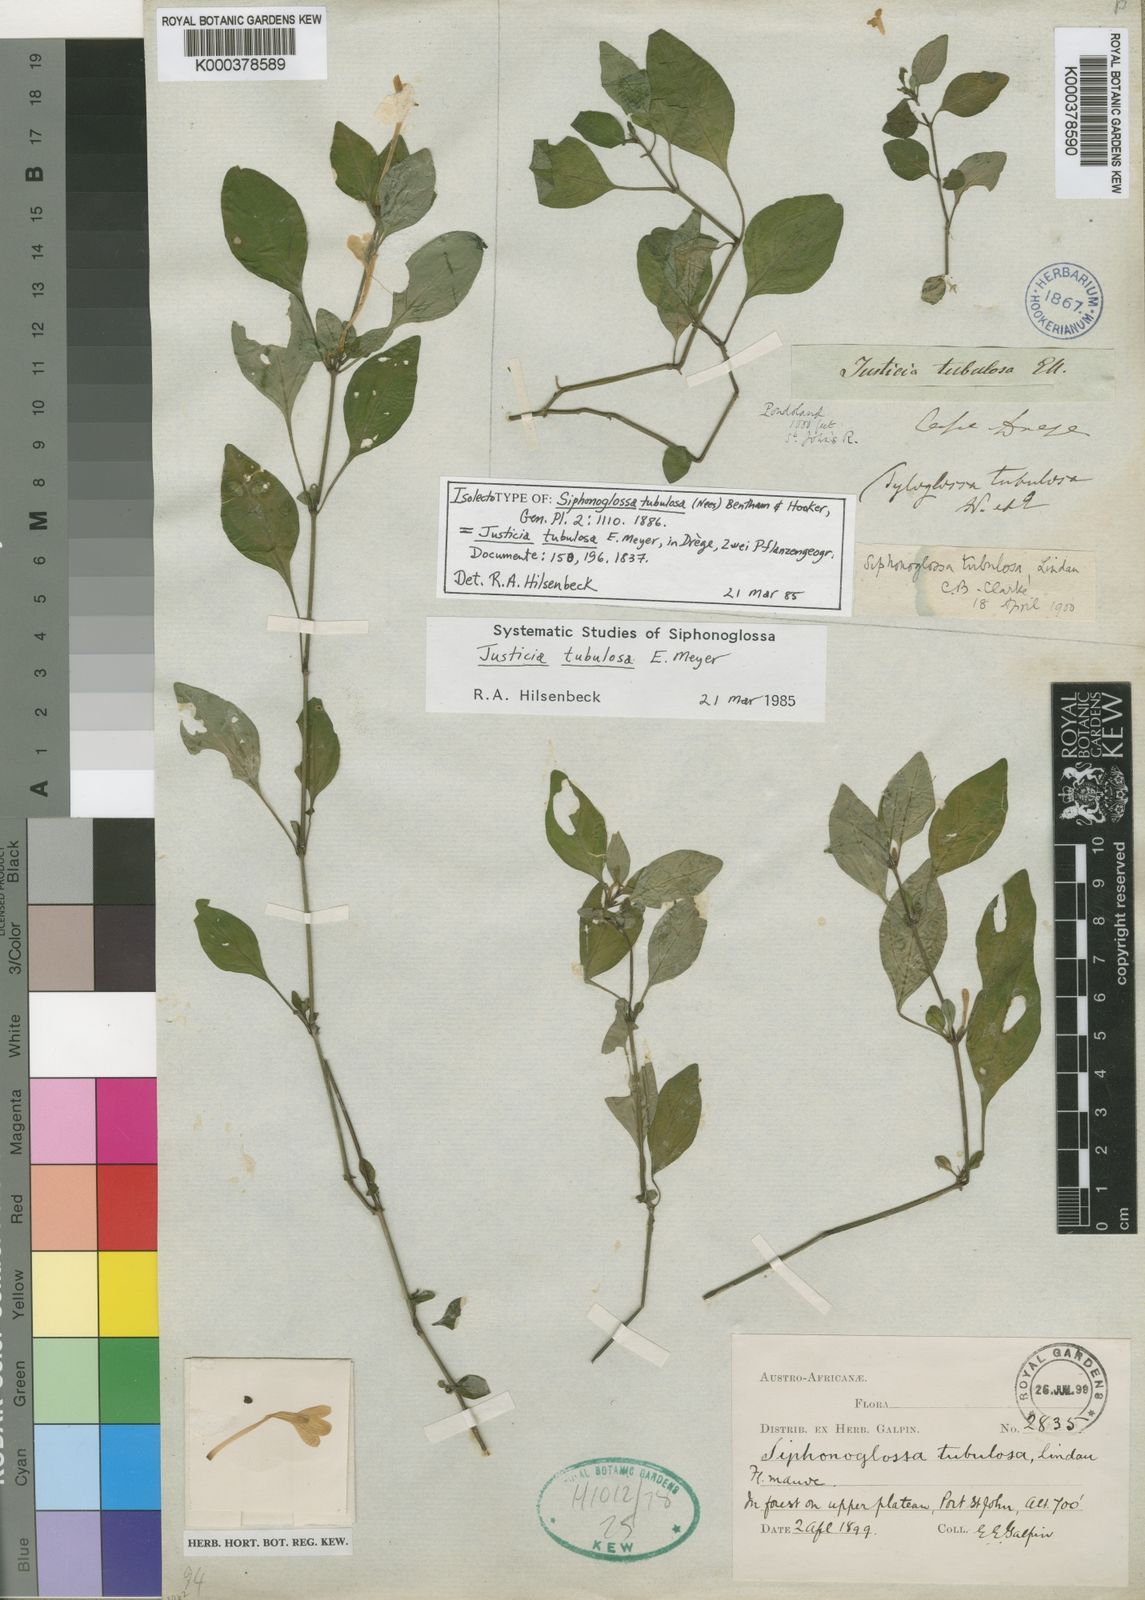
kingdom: Plantae
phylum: Tracheophyta
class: Magnoliopsida
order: Lamiales
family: Acanthaceae
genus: Justicia
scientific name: Justicia
